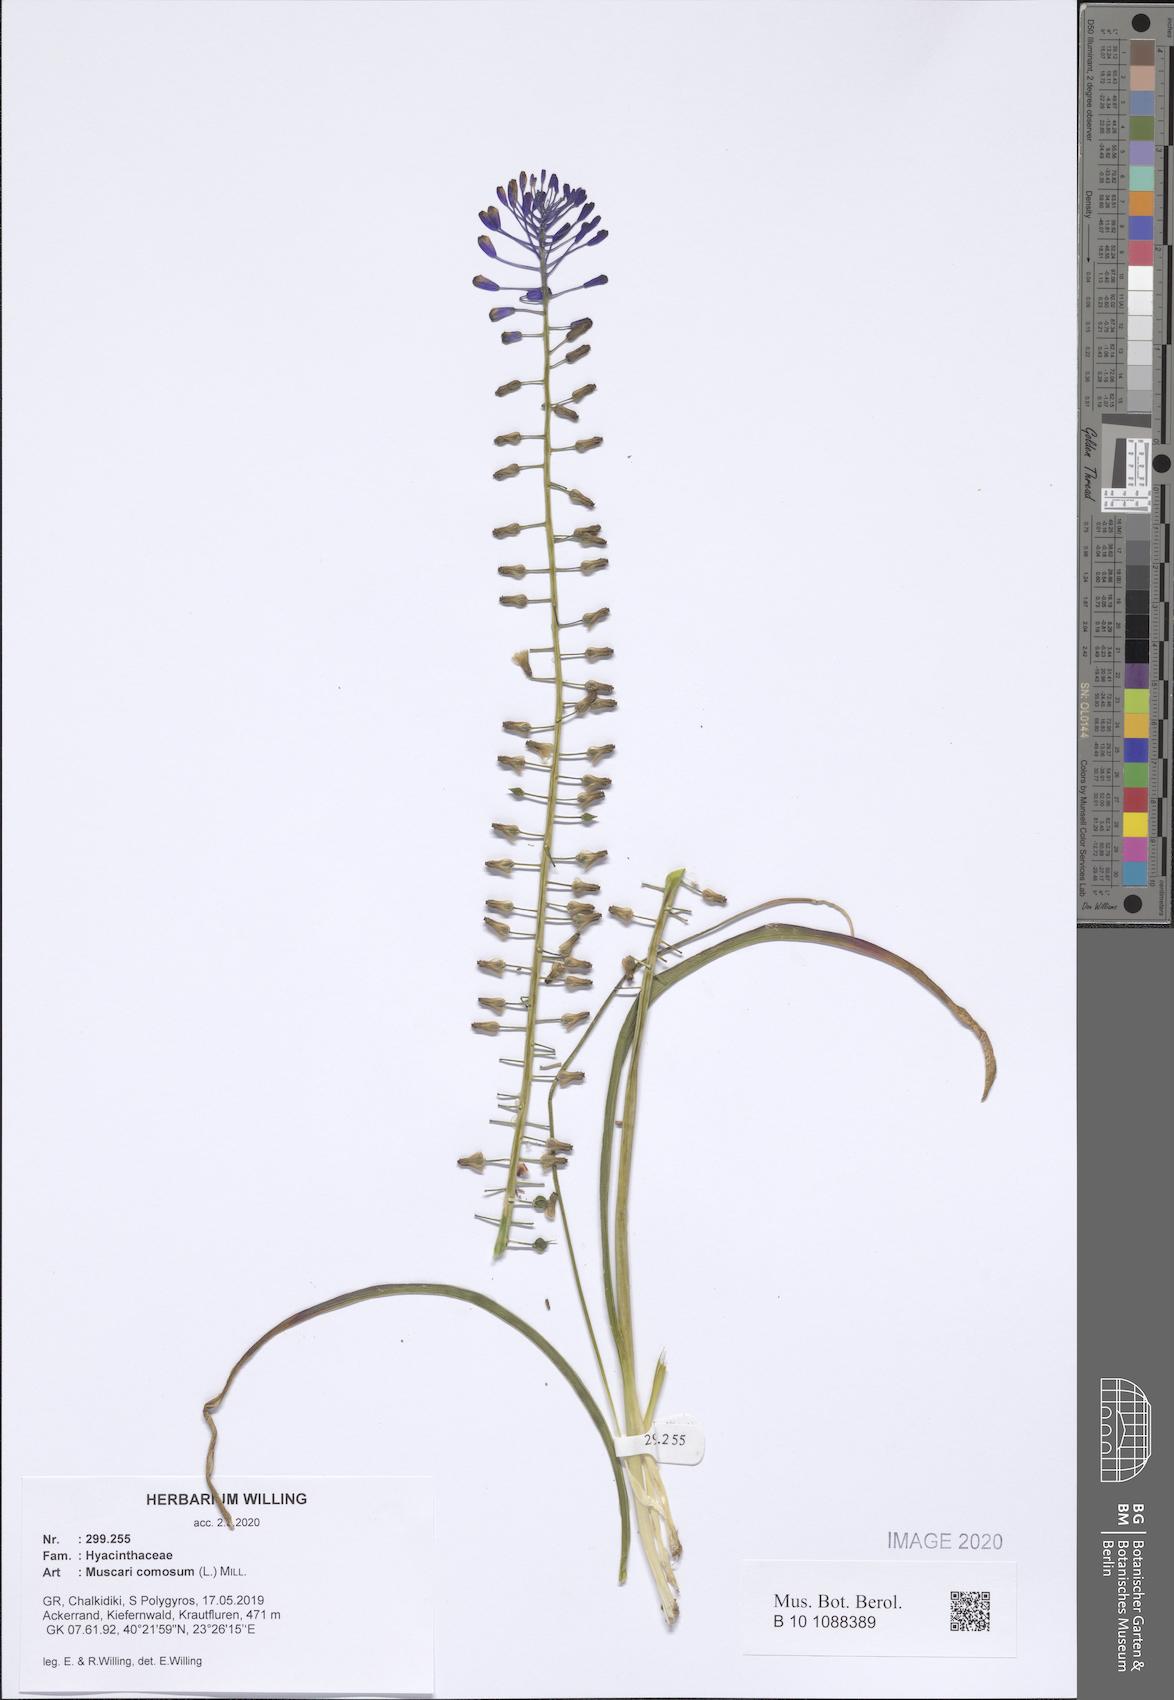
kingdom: Plantae
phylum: Tracheophyta
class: Liliopsida
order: Asparagales
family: Asparagaceae
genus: Muscari
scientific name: Muscari comosum
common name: Tassel hyacinth
